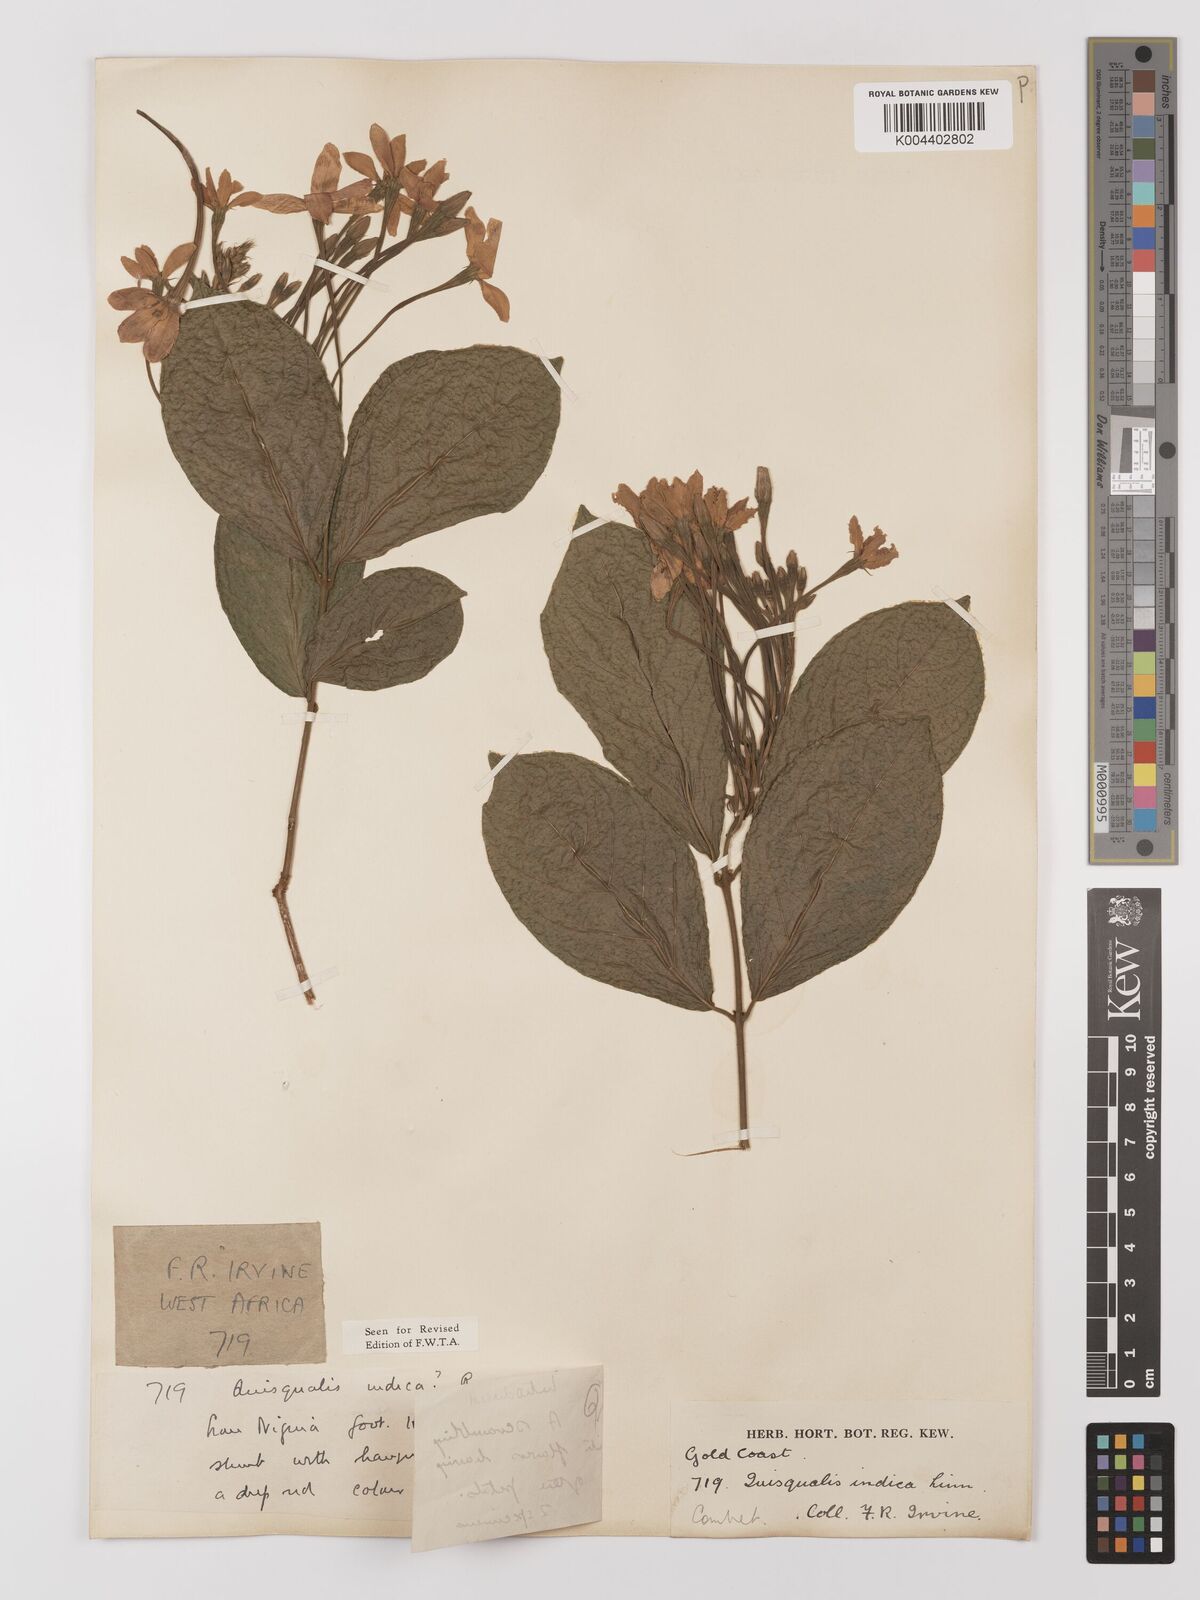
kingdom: Plantae
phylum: Tracheophyta
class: Magnoliopsida
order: Myrtales
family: Combretaceae
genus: Combretum
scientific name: Combretum
